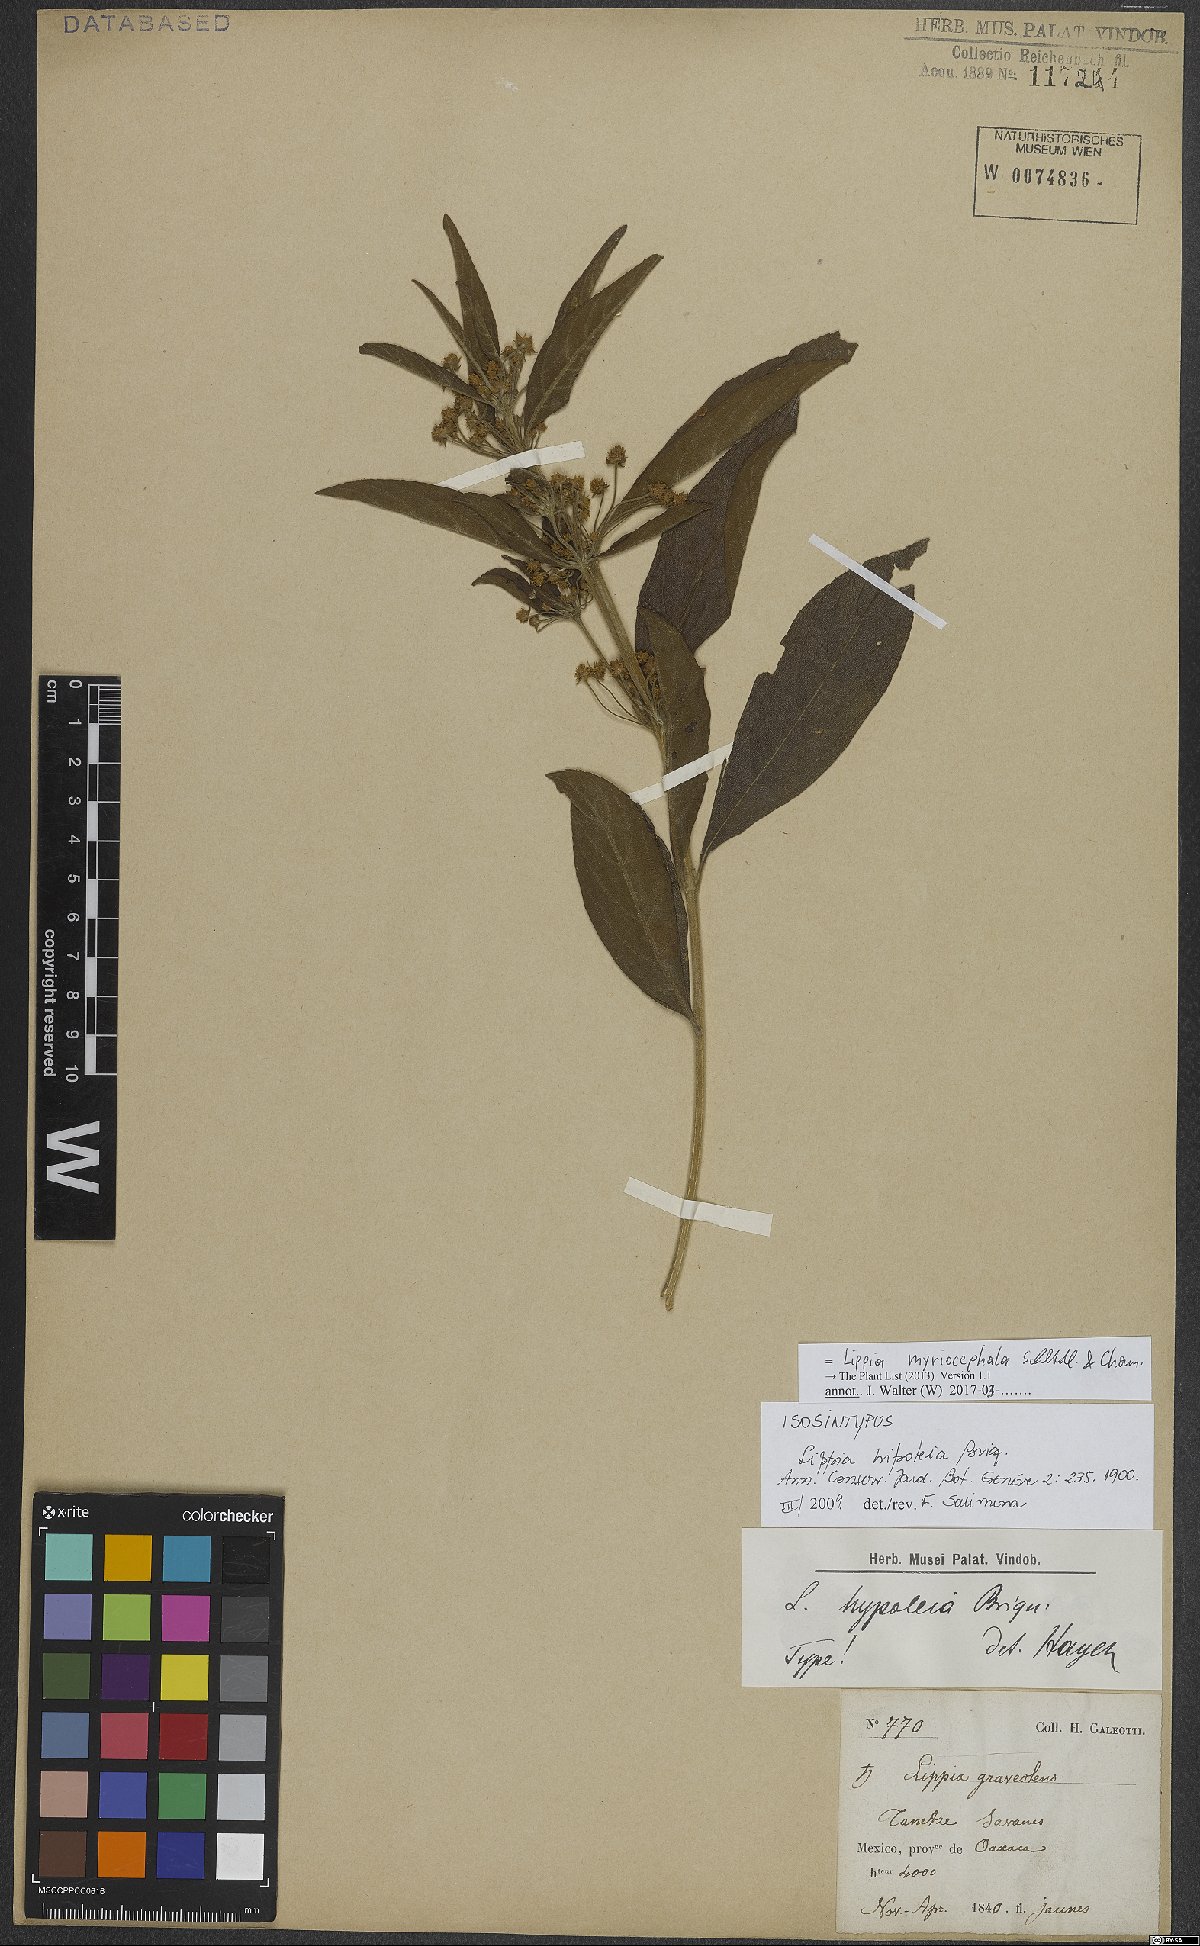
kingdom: Plantae
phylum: Tracheophyta
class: Magnoliopsida
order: Lamiales
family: Verbenaceae
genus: Lippia
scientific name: Lippia myriocephala
